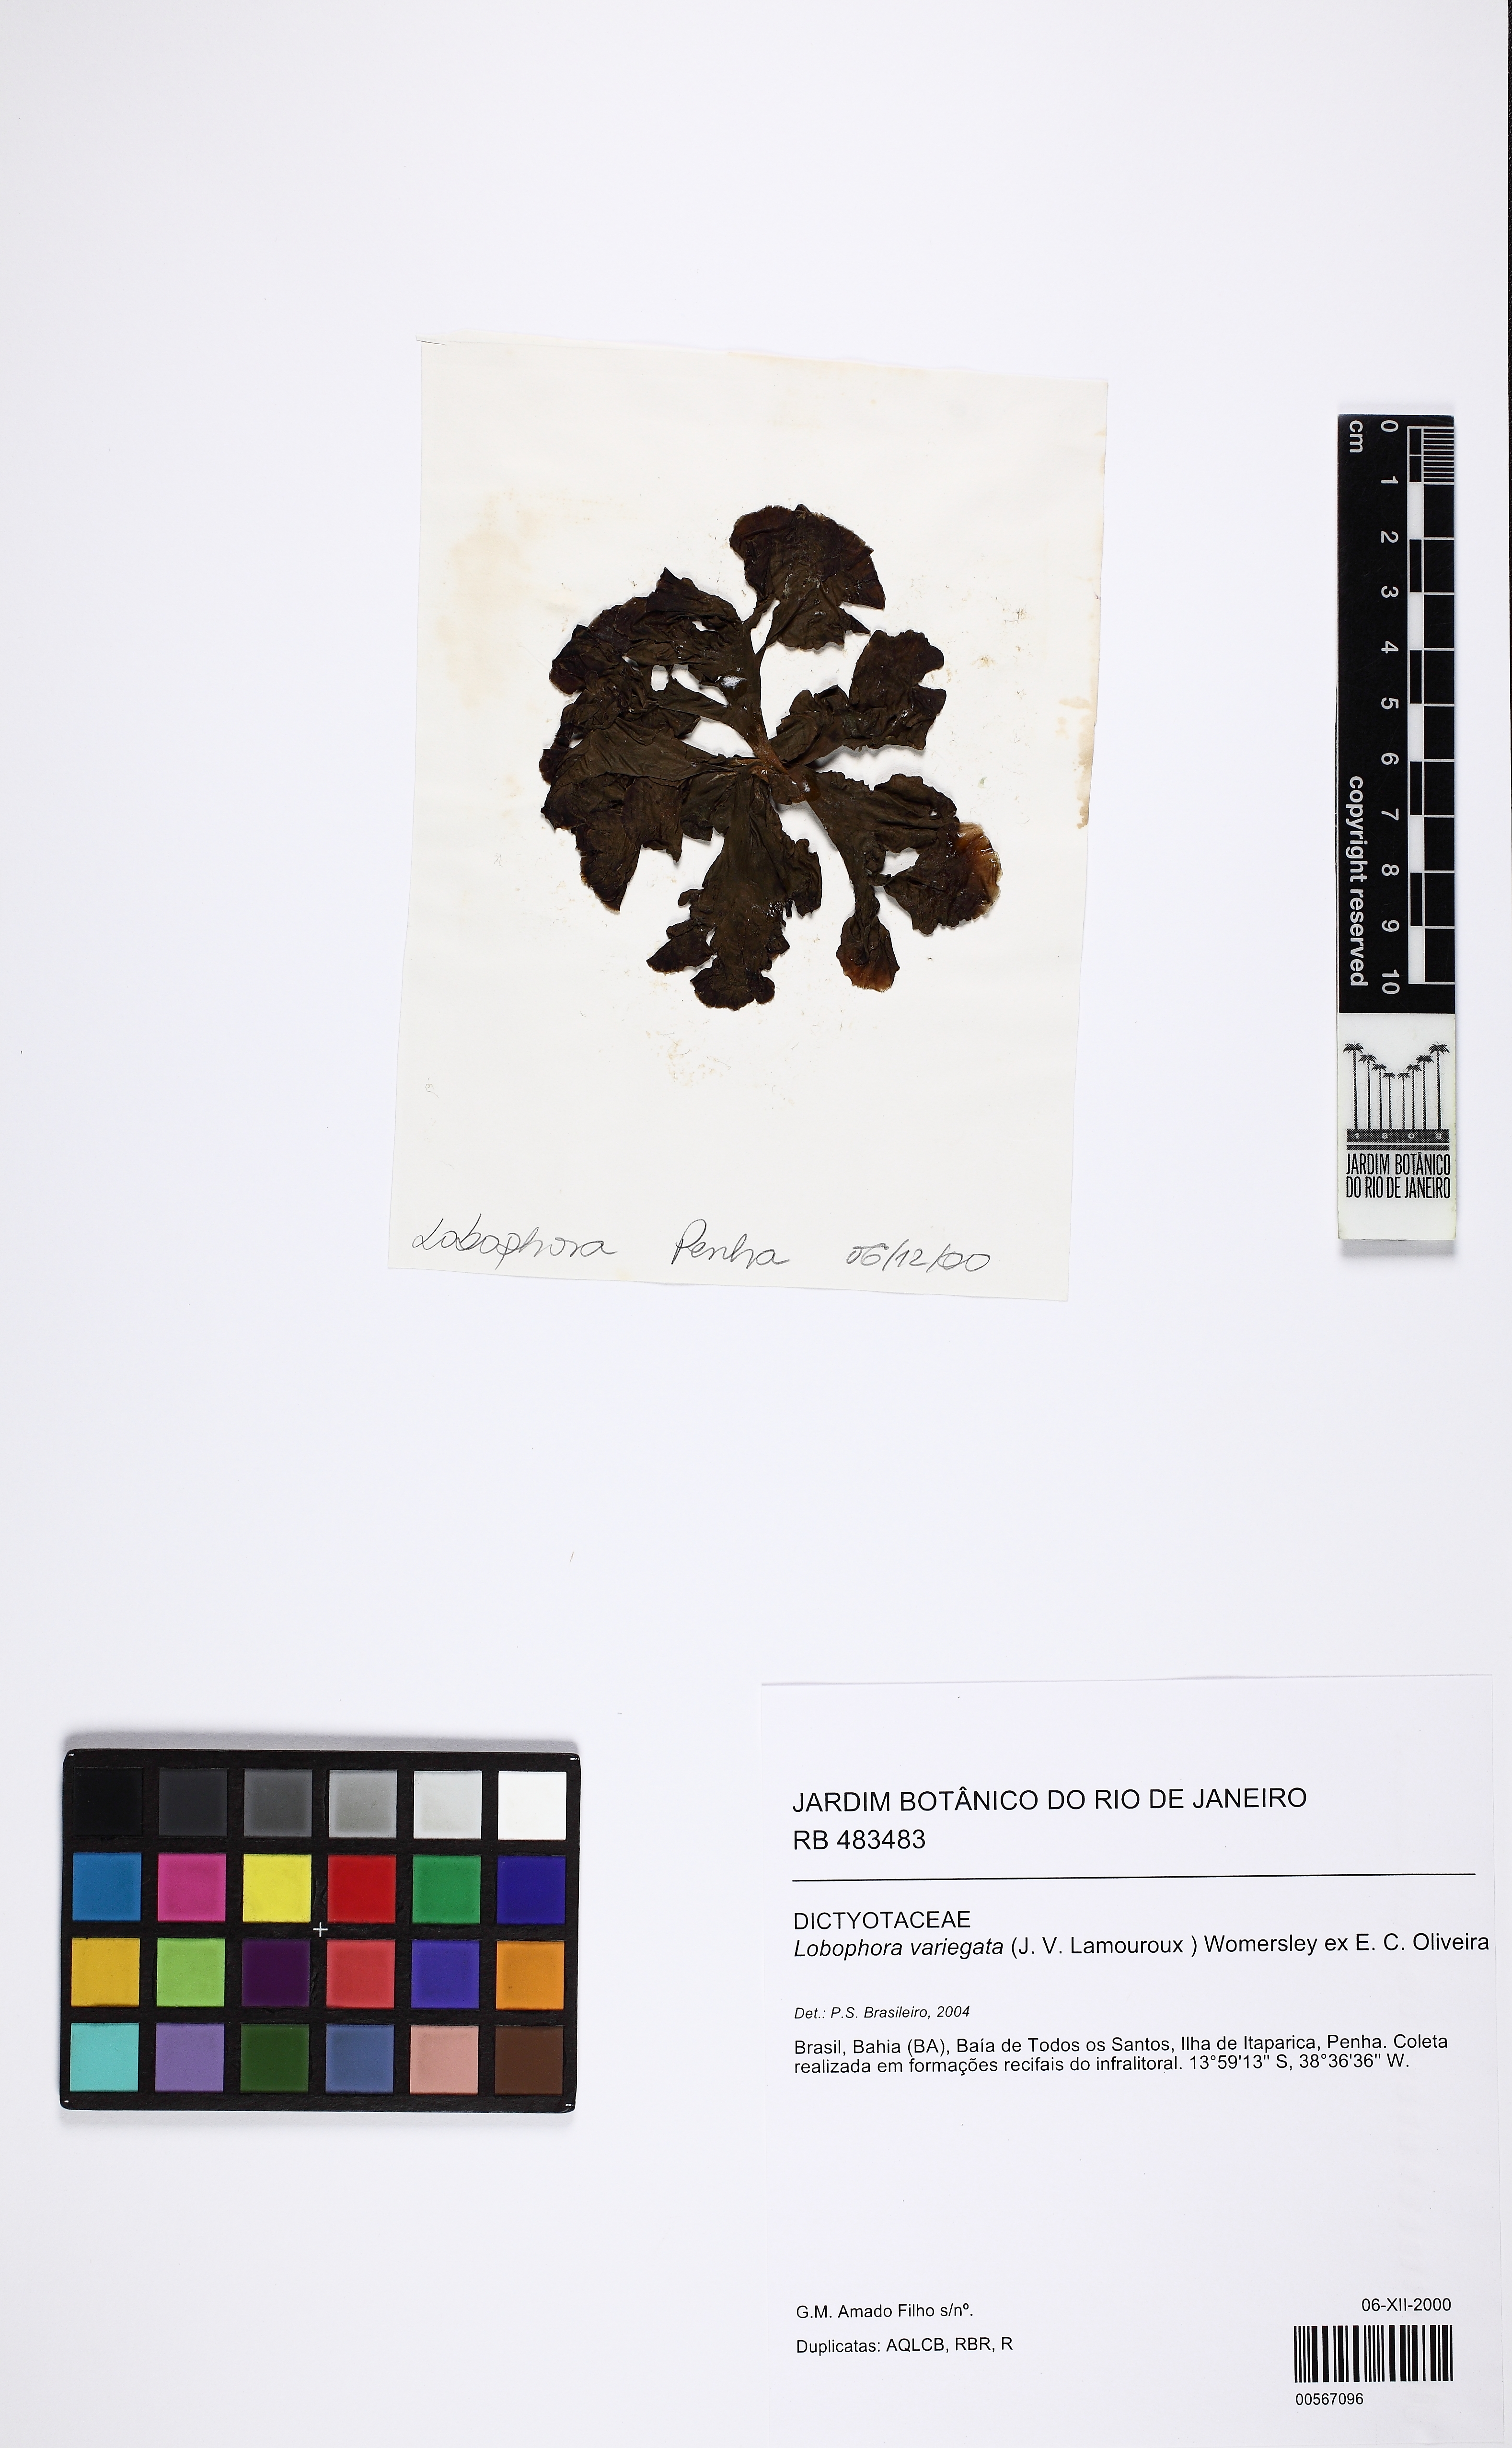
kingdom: Chromista
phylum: Ochrophyta
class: Phaeophyceae
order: Dictyotales
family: Dictyotaceae
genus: Lobophora
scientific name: Lobophora variegata
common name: Encrusting fan-leaf algae
